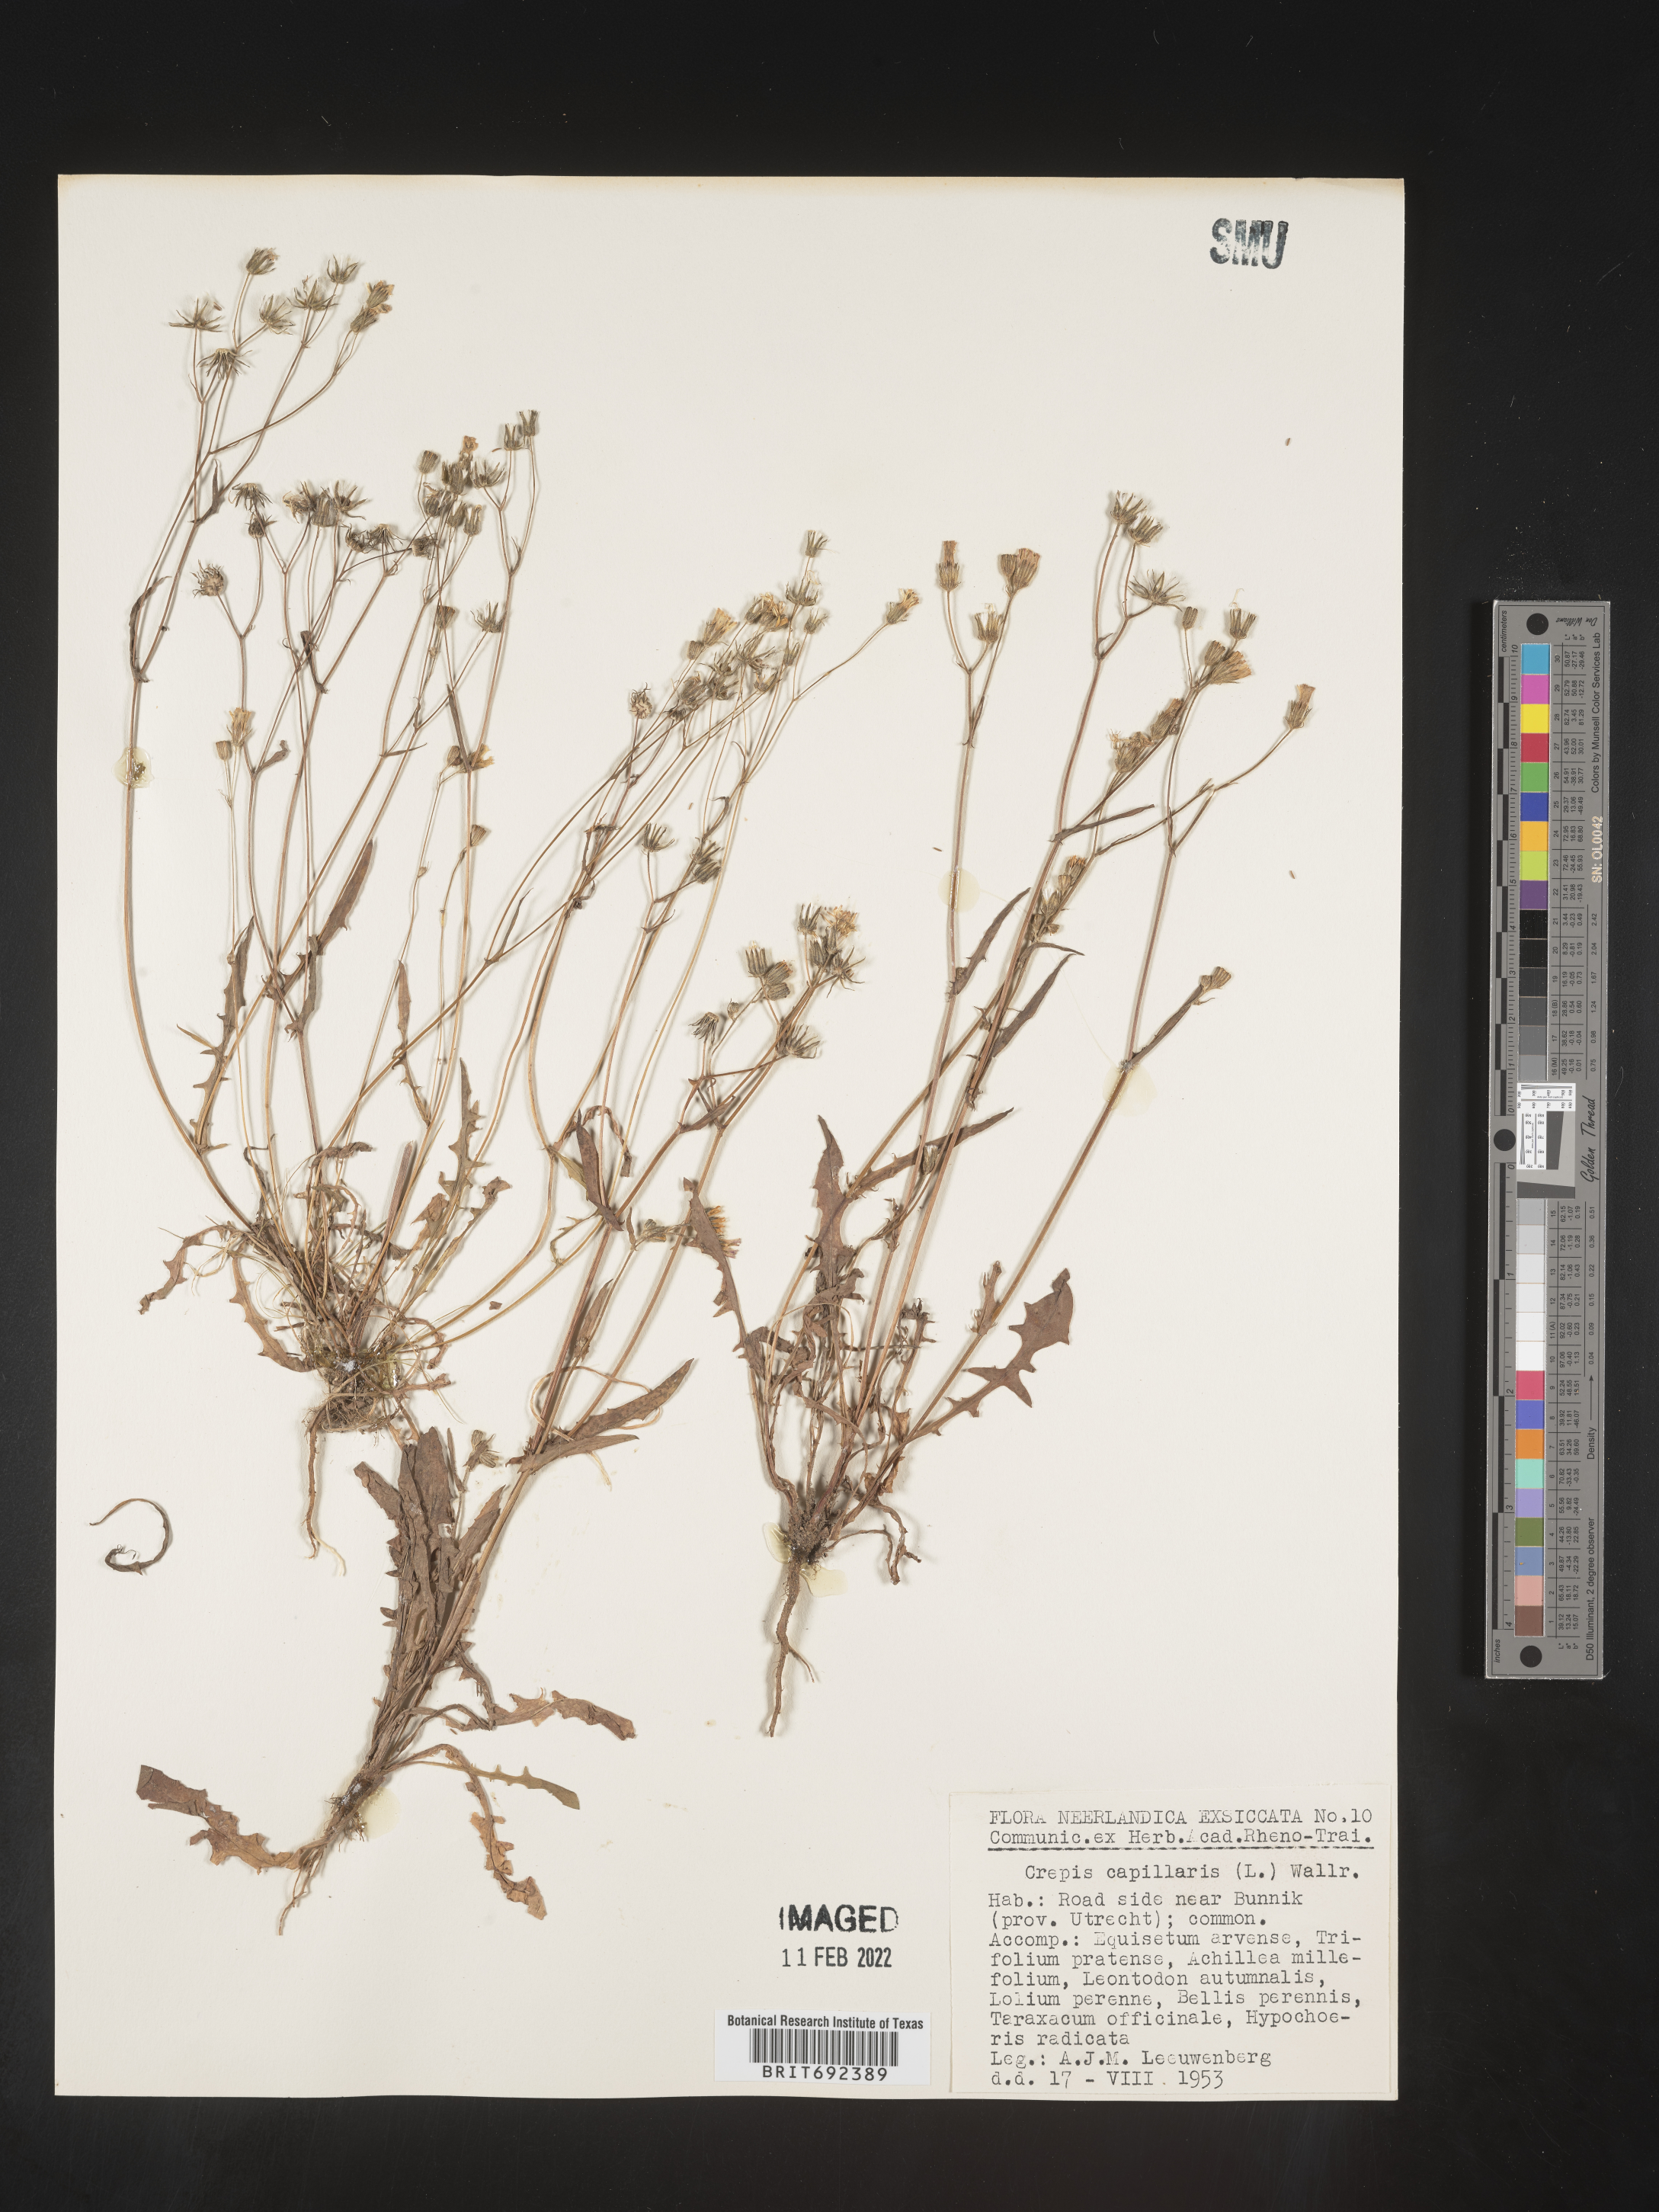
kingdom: Plantae
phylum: Tracheophyta
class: Magnoliopsida
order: Asterales
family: Asteraceae
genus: Crepis
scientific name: Crepis
